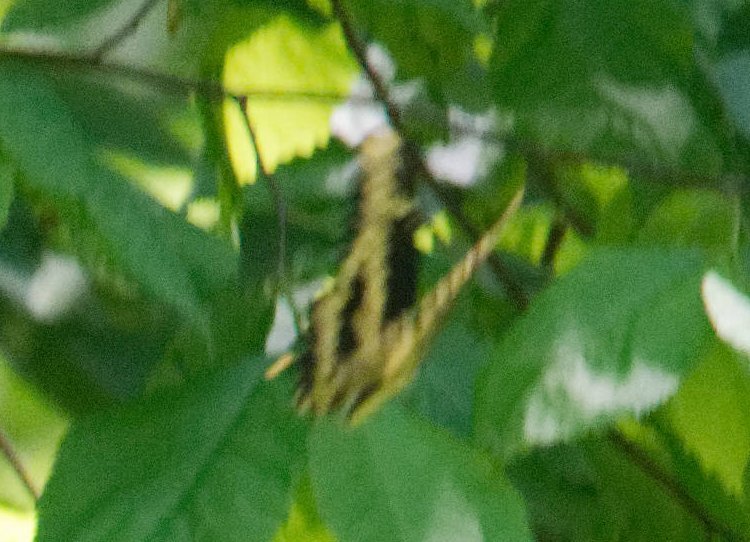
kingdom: Animalia
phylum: Arthropoda
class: Insecta
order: Lepidoptera
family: Papilionidae
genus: Papilio
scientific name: Papilio cresphontes
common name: Eastern Giant Swallowtail
